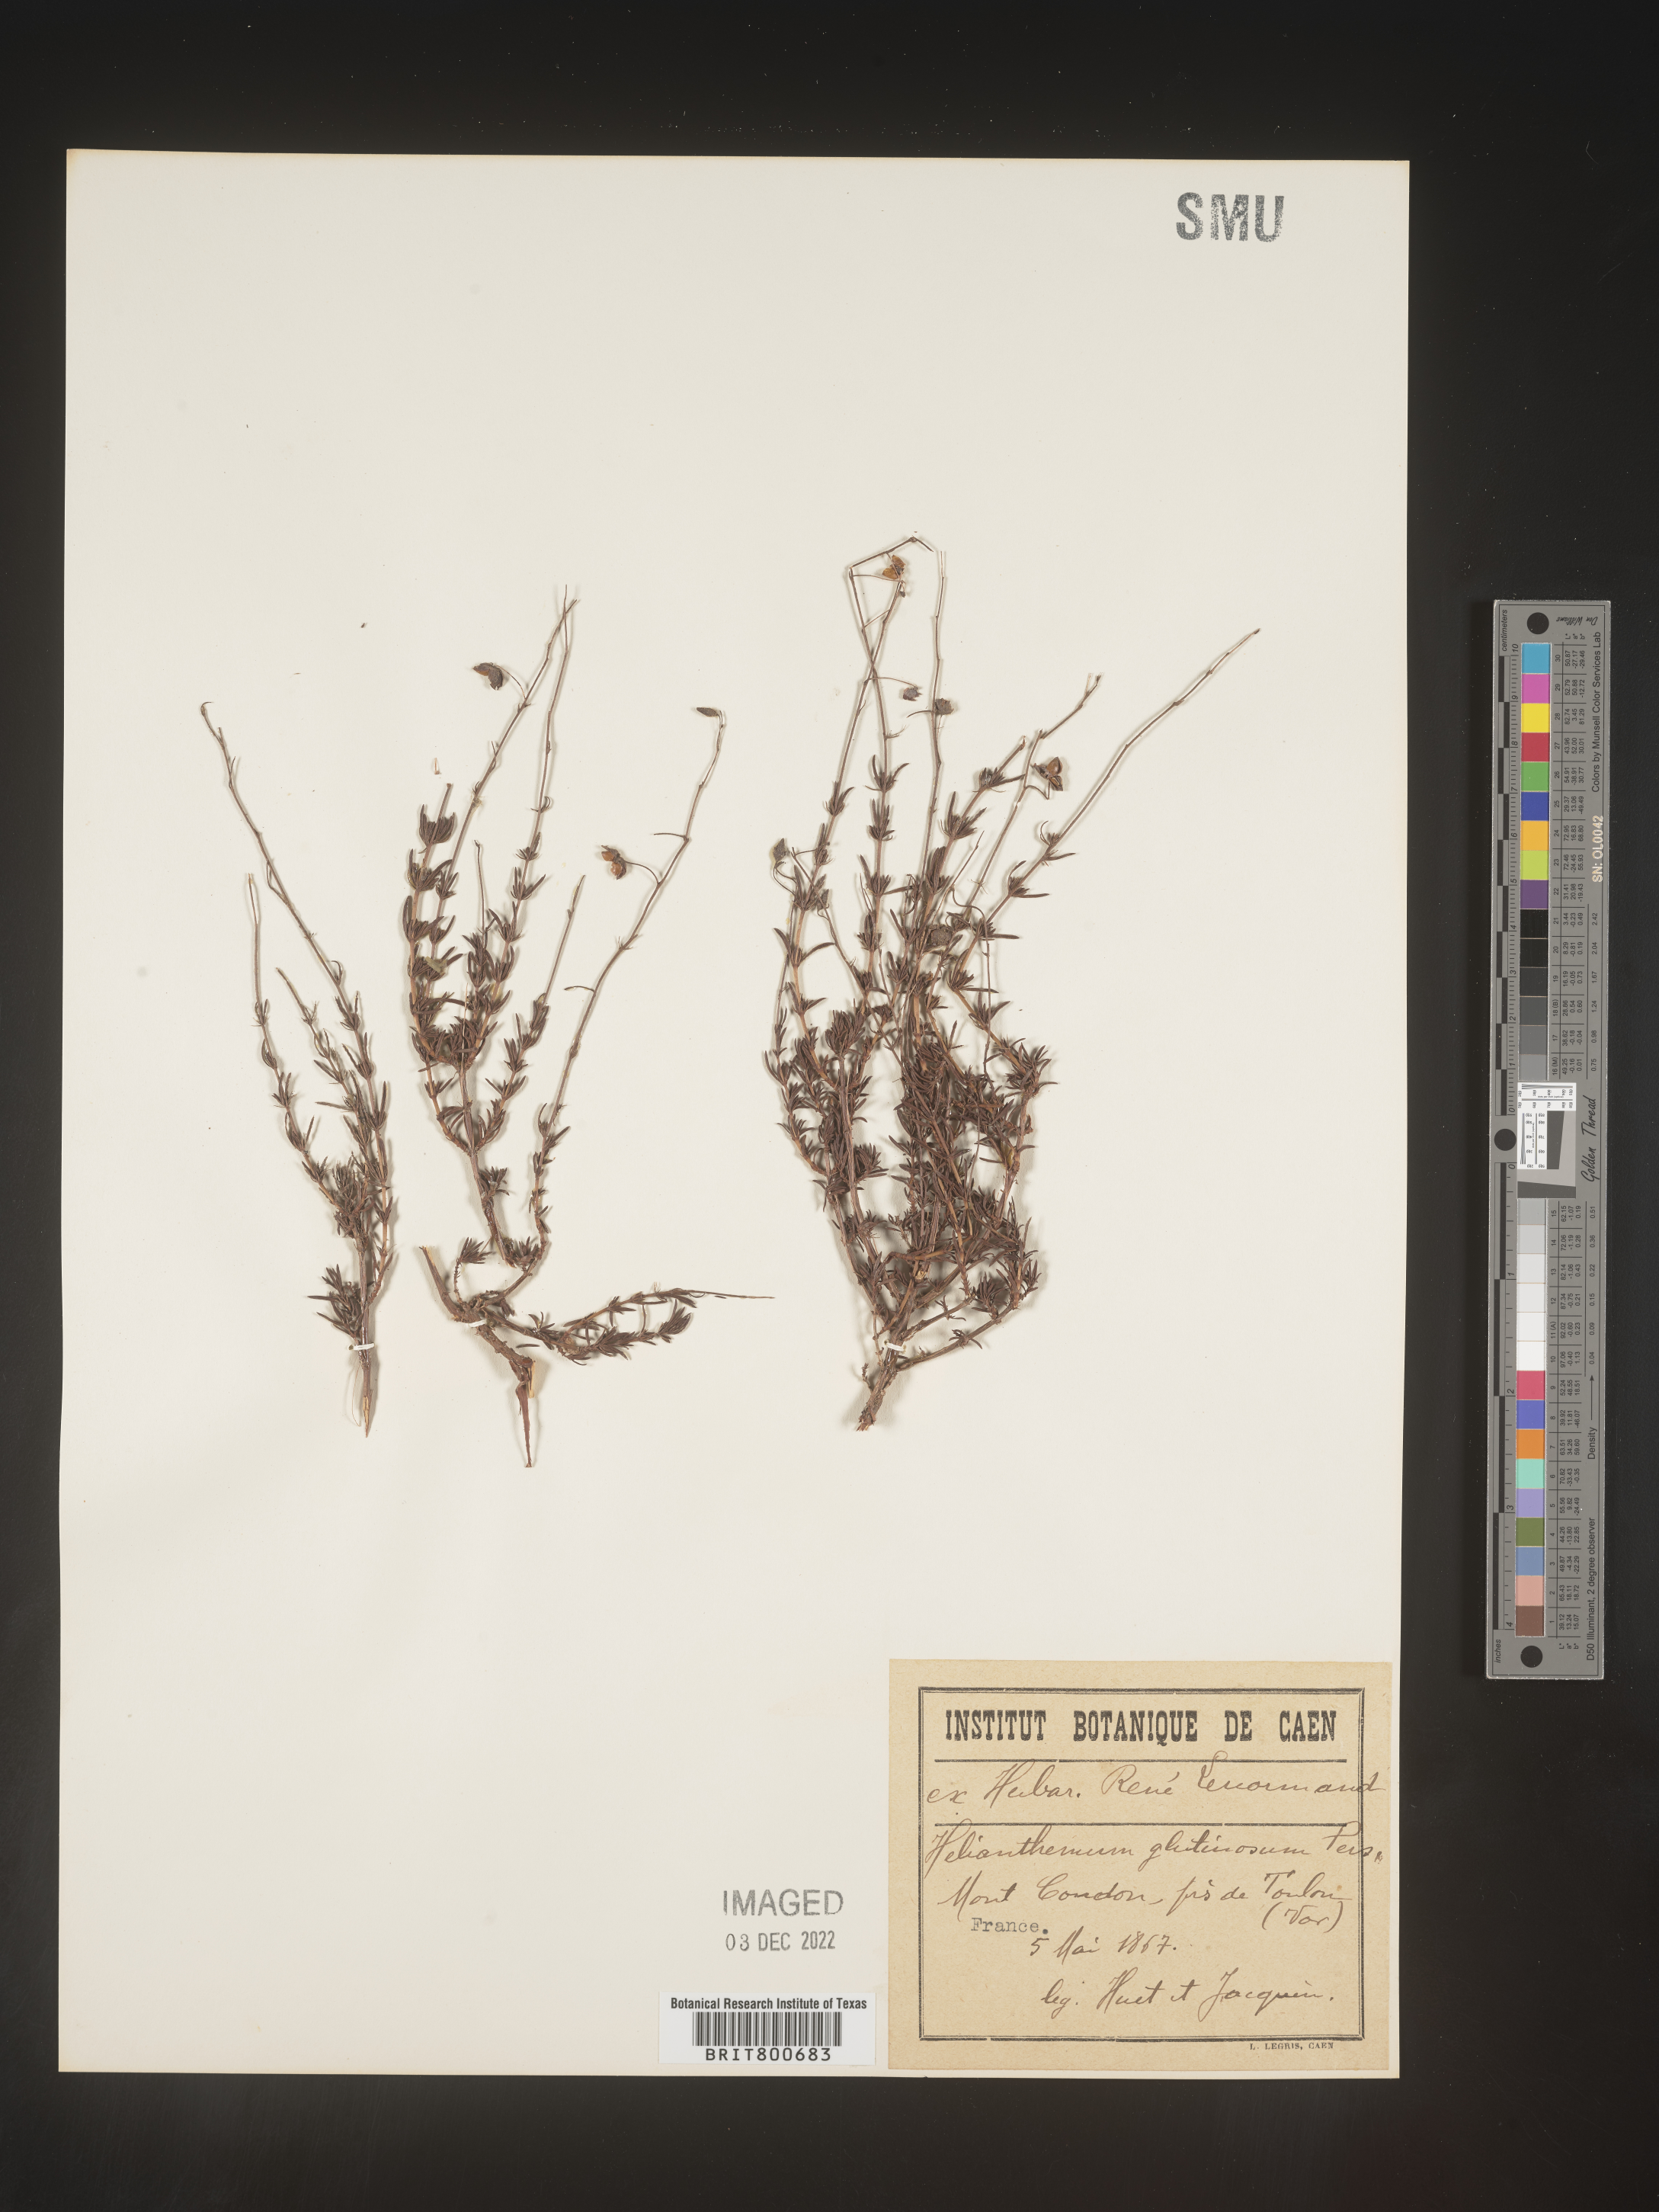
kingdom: Plantae
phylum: Tracheophyta
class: Magnoliopsida
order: Malvales
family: Cistaceae
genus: Helianthemum
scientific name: Helianthemum
